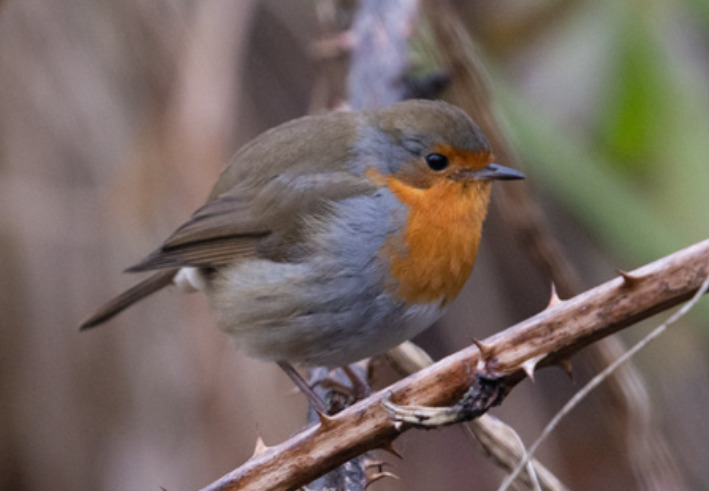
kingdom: Animalia
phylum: Chordata
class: Aves
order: Passeriformes
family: Muscicapidae
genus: Erithacus
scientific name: Erithacus rubecula
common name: Rødhals/rødkælk
